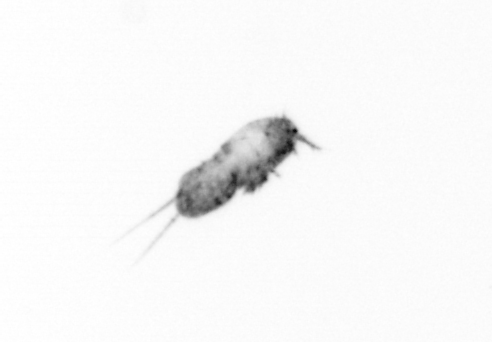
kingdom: Animalia
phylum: Arthropoda
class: Copepoda
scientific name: Copepoda
